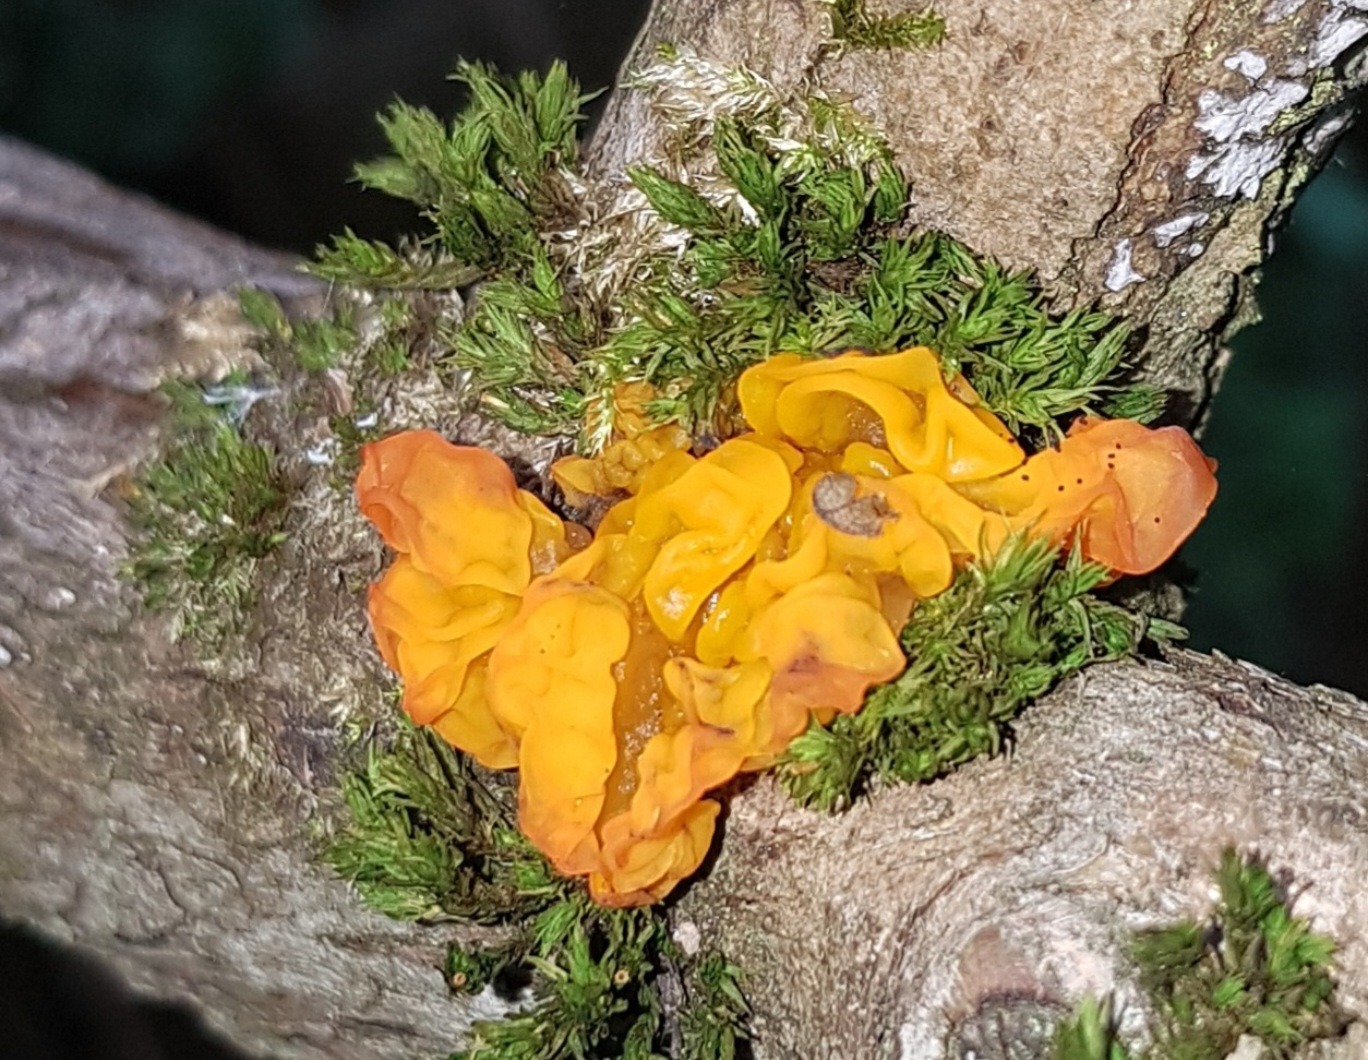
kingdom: Fungi
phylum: Basidiomycota
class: Tremellomycetes
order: Tremellales
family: Tremellaceae
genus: Tremella
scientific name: Tremella mesenterica
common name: Gul bævresvamp
